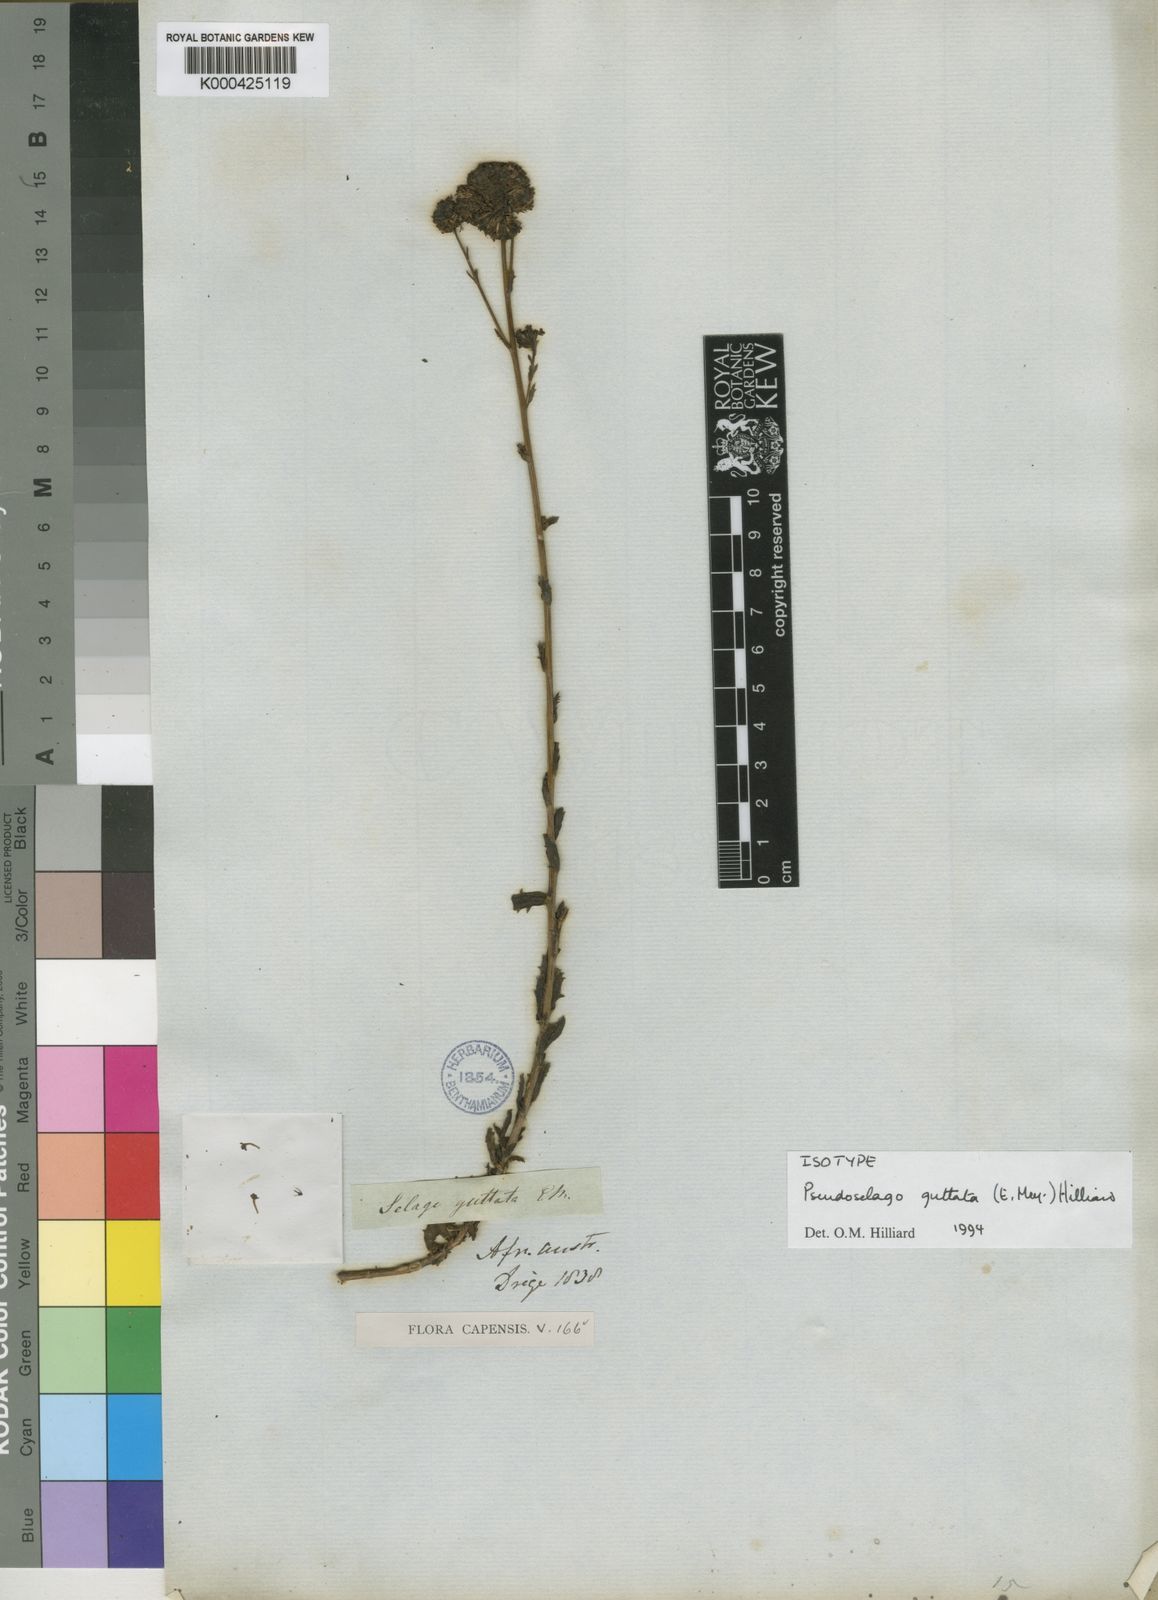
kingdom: Plantae
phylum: Tracheophyta
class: Magnoliopsida
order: Lamiales
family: Scrophulariaceae
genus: Pseudoselago
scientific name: Pseudoselago guttata
